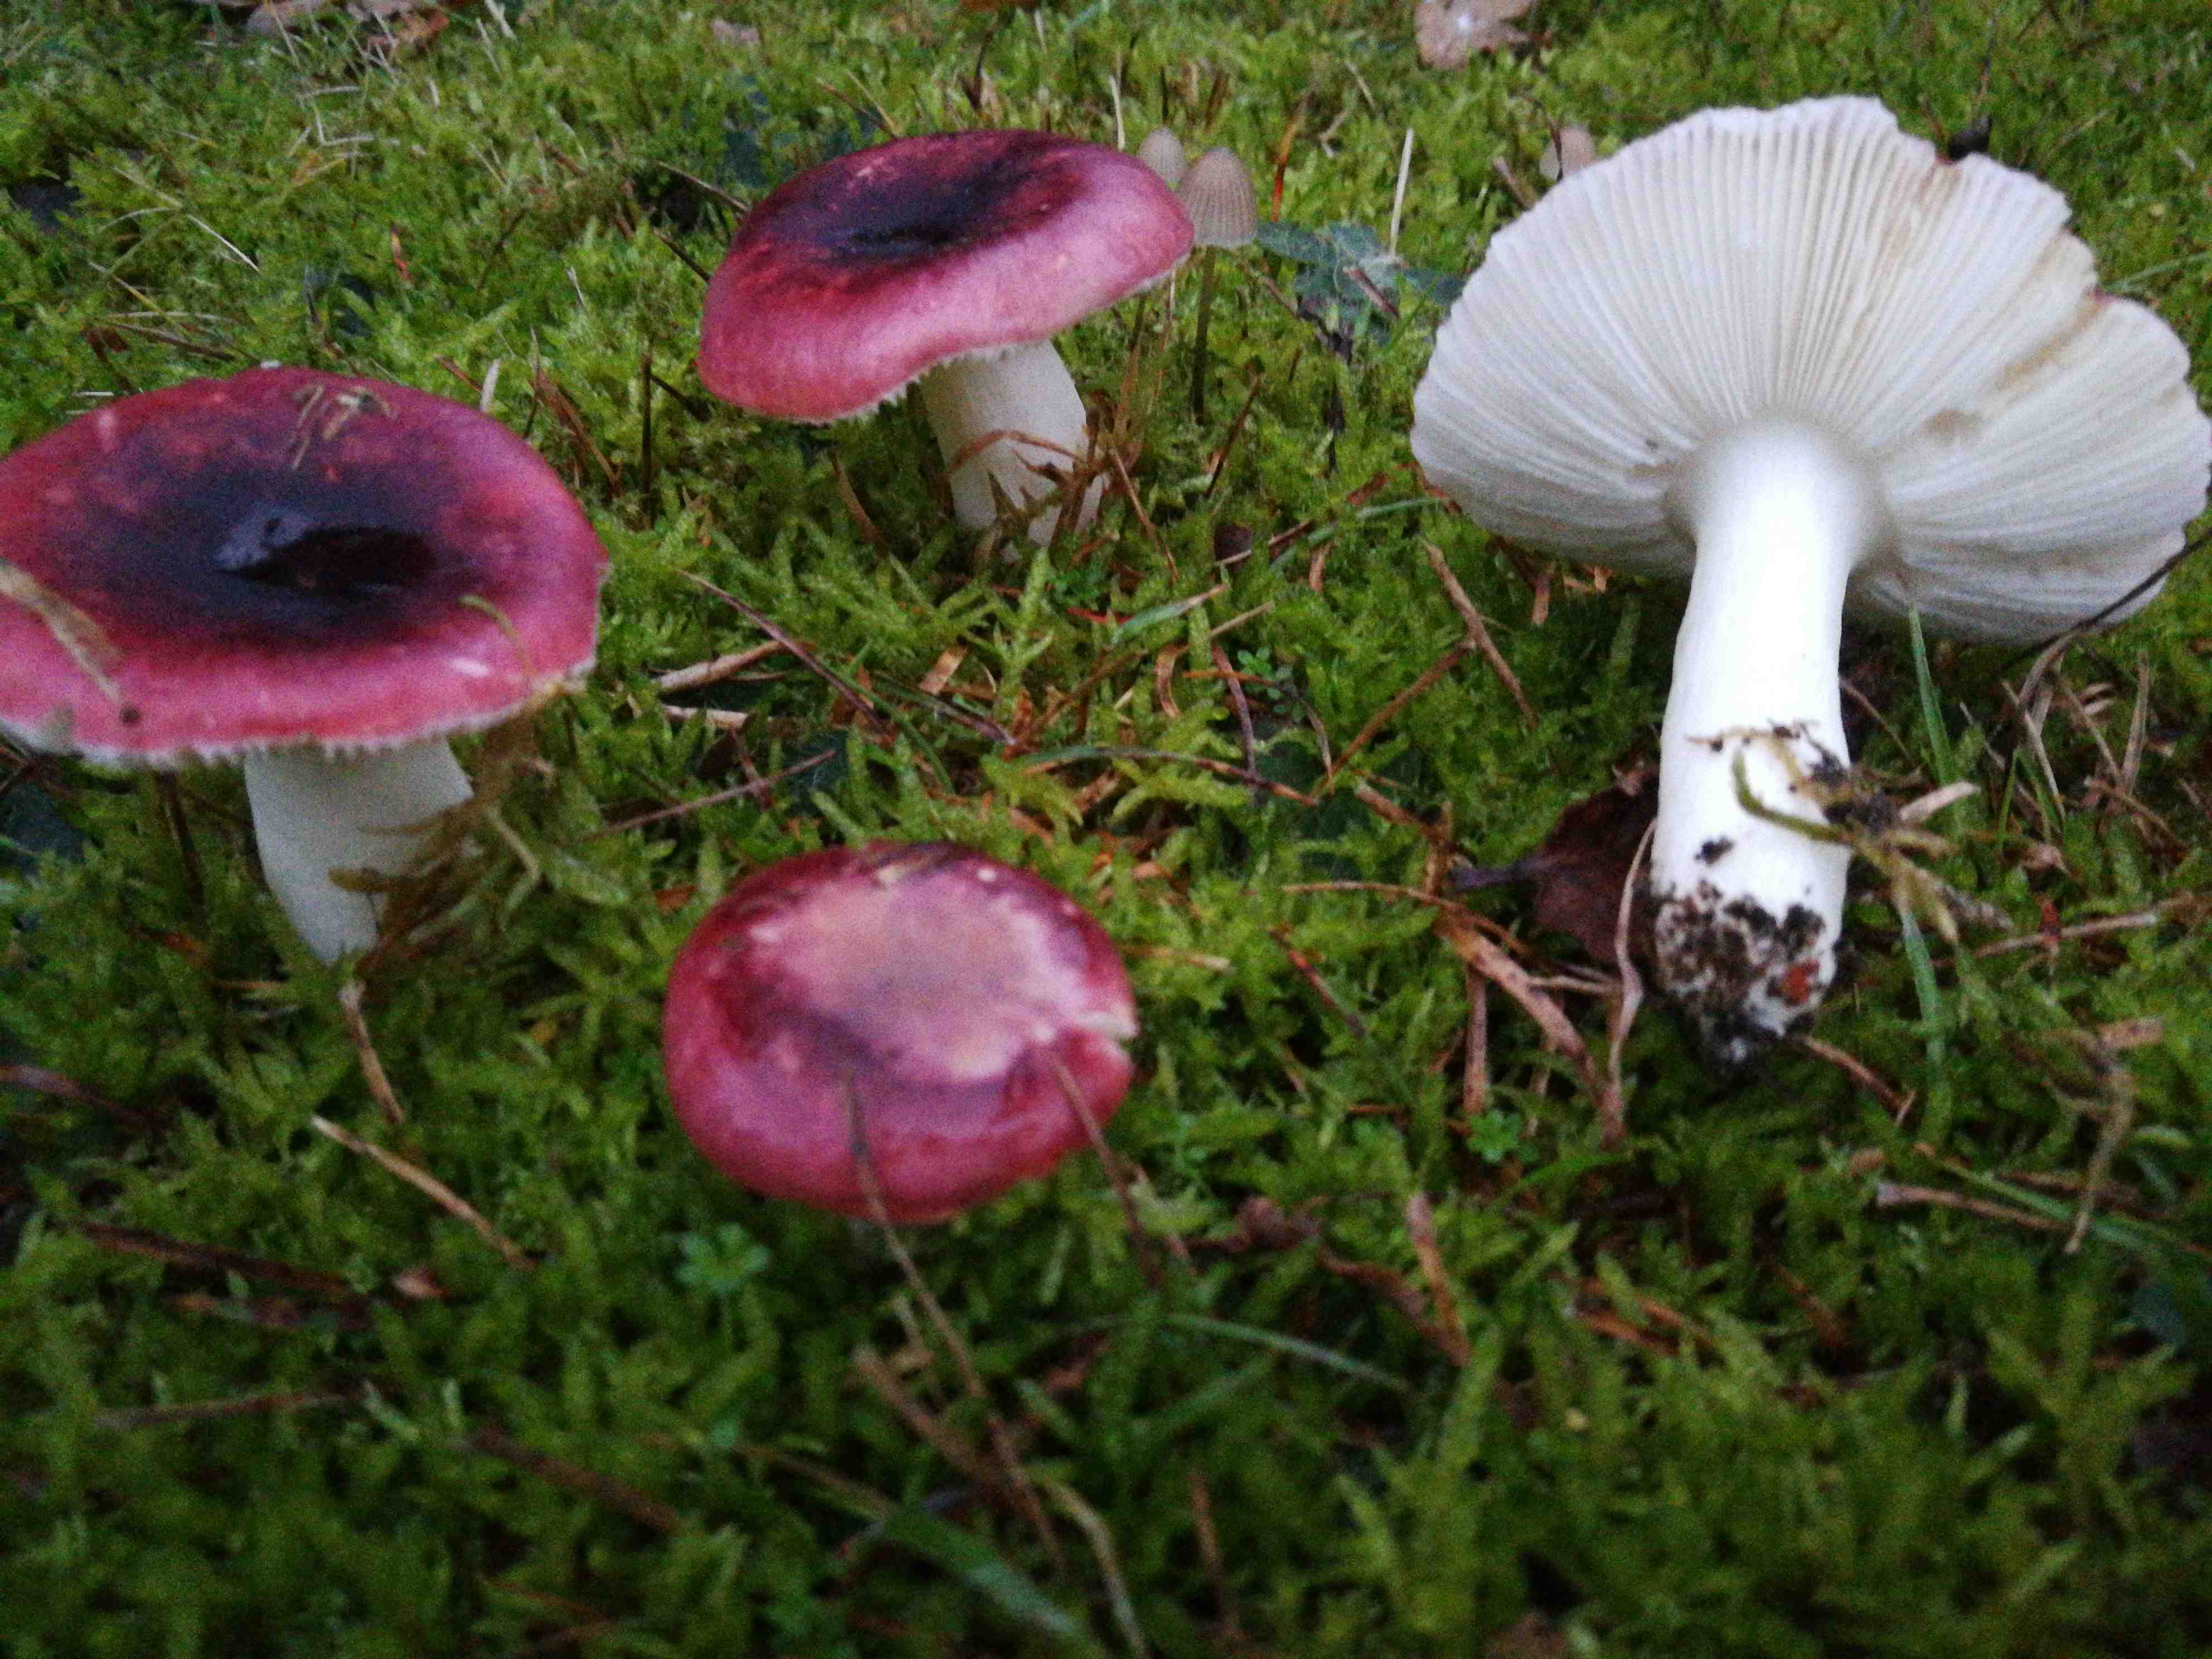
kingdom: Fungi
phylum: Basidiomycota
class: Agaricomycetes
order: Russulales
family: Russulaceae
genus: Russula
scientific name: Russula
